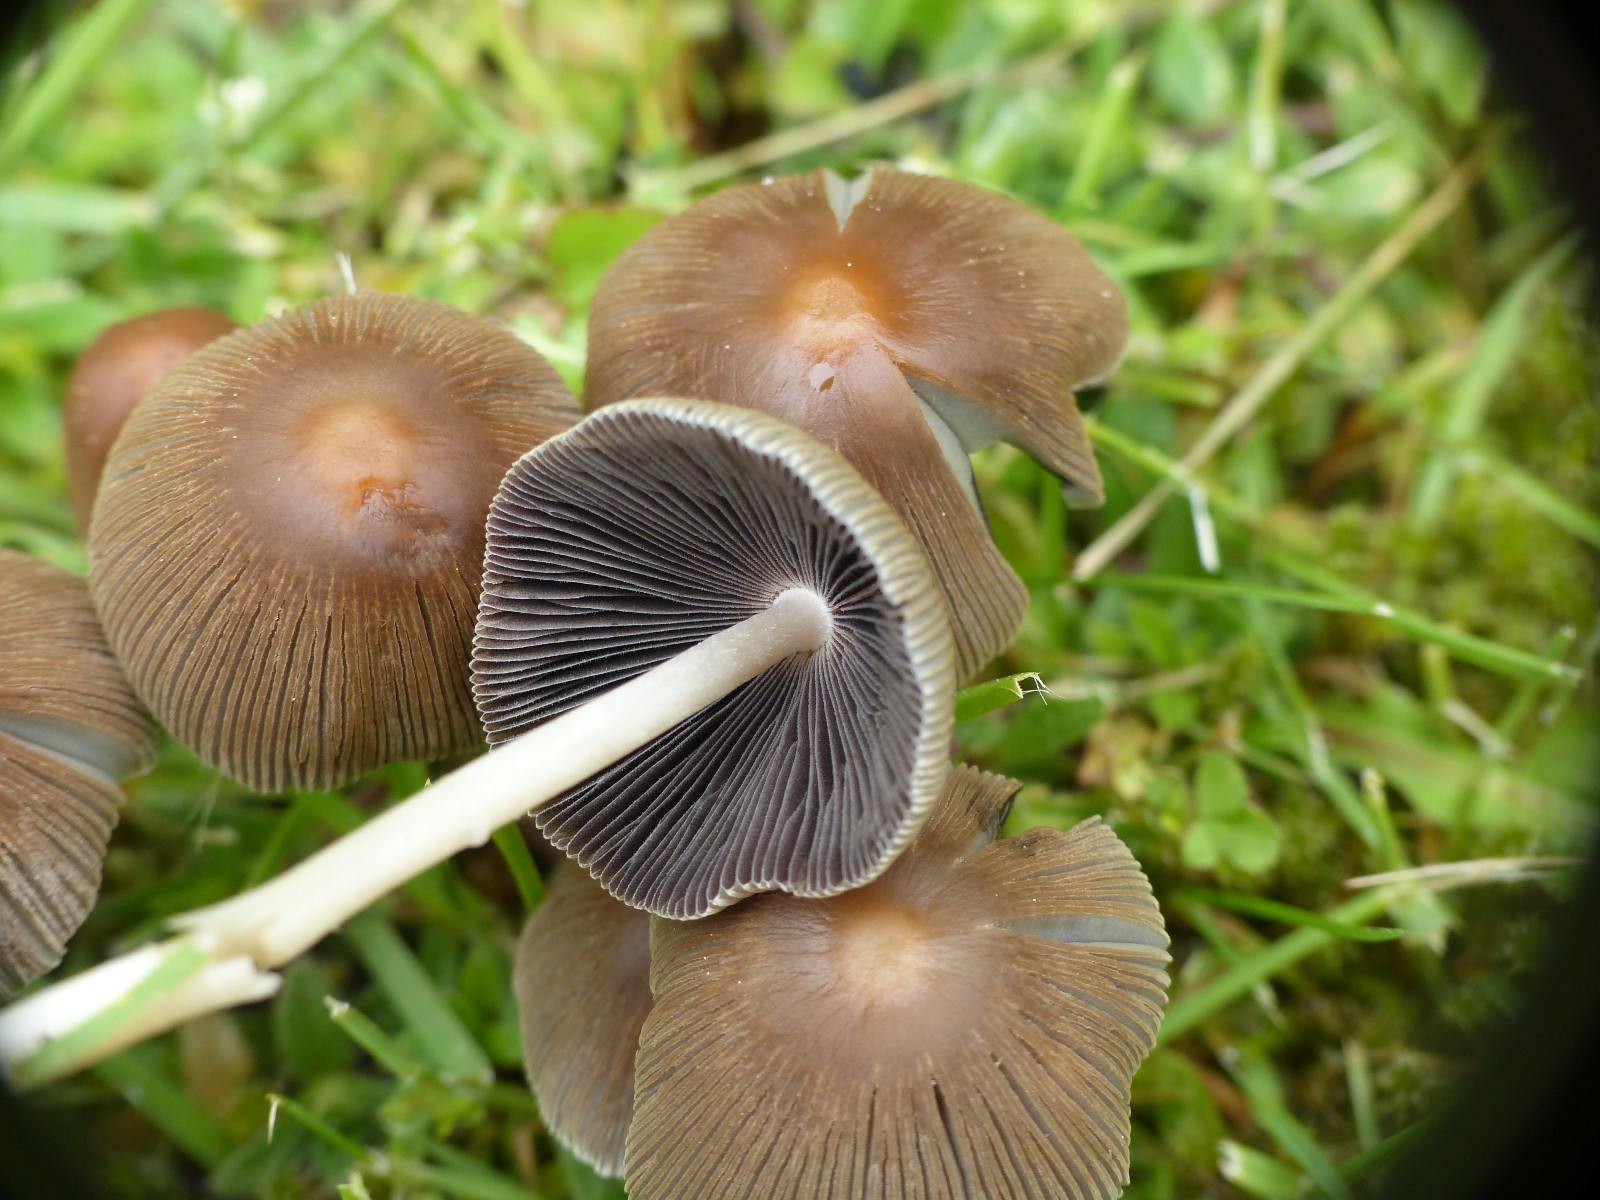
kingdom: Fungi
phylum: Basidiomycota
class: Agaricomycetes
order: Agaricales
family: Psathyrellaceae
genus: Parasola
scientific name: Parasola auricoma
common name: hansens hjulhat
